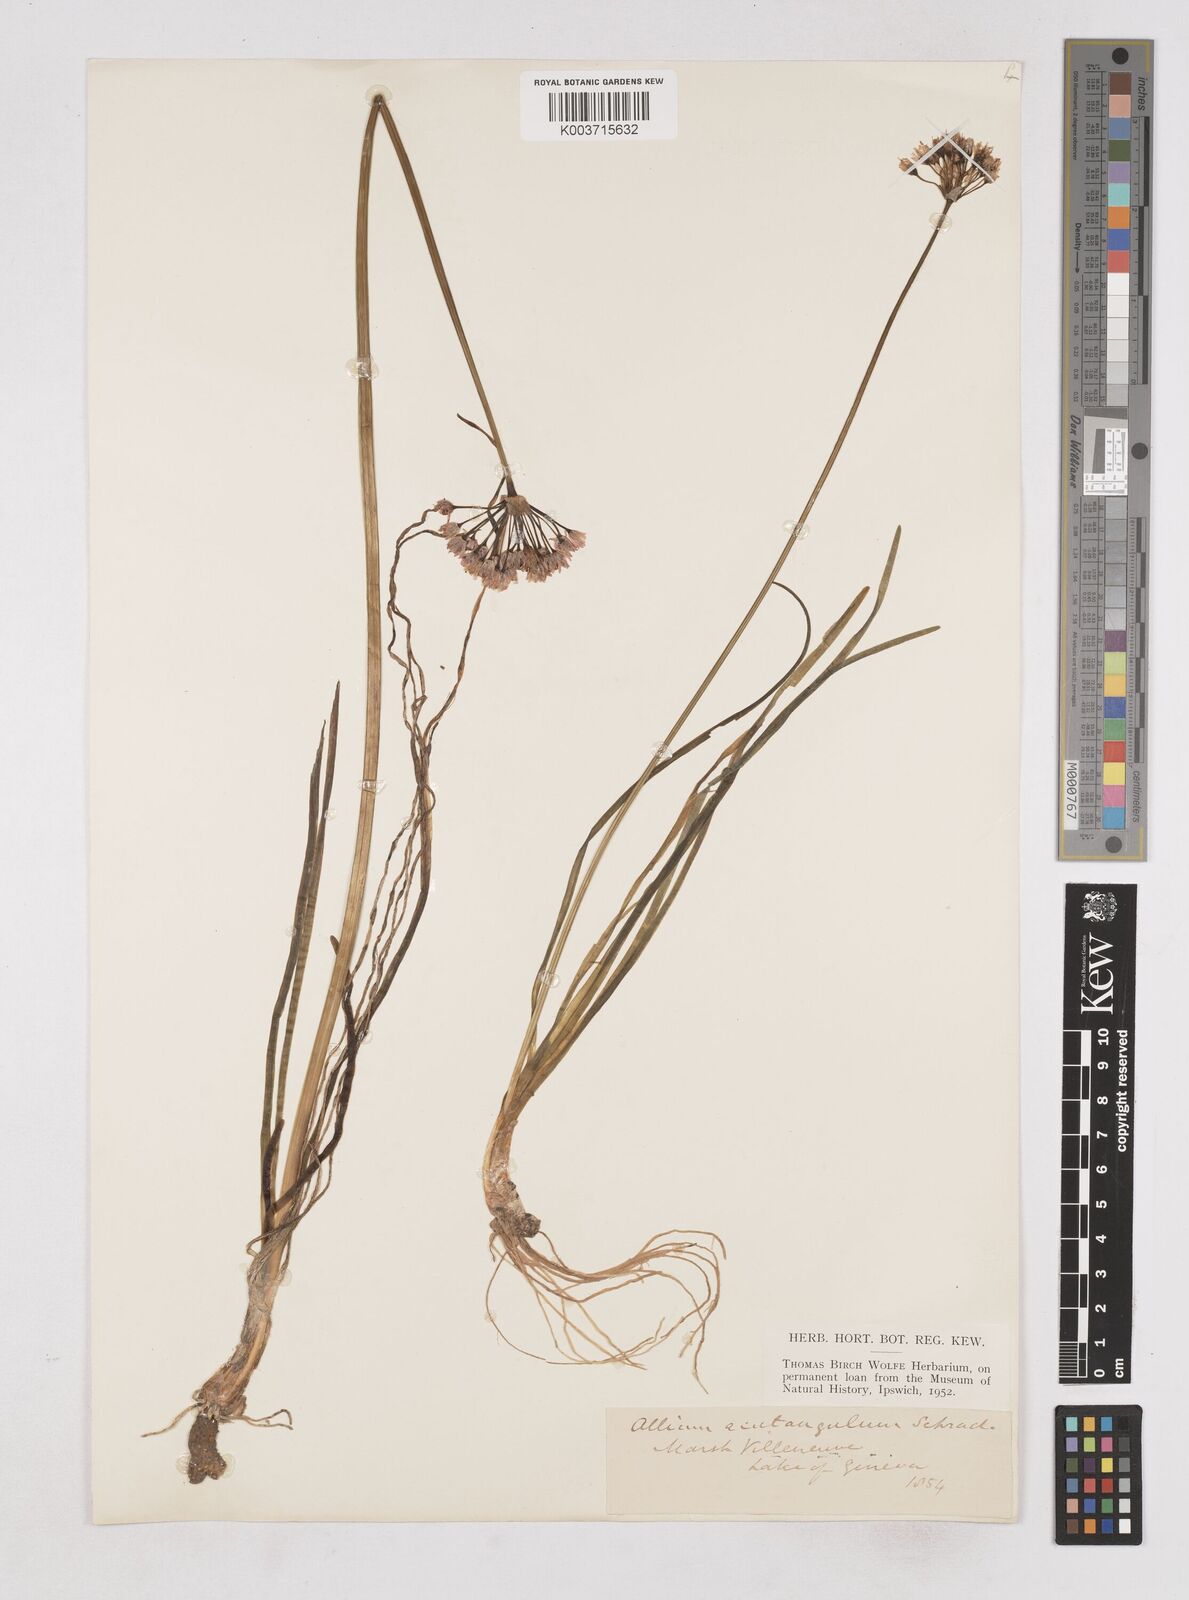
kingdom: Plantae
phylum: Tracheophyta
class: Liliopsida
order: Asparagales
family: Amaryllidaceae
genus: Allium
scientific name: Allium angulosum
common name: Mouse garlic
